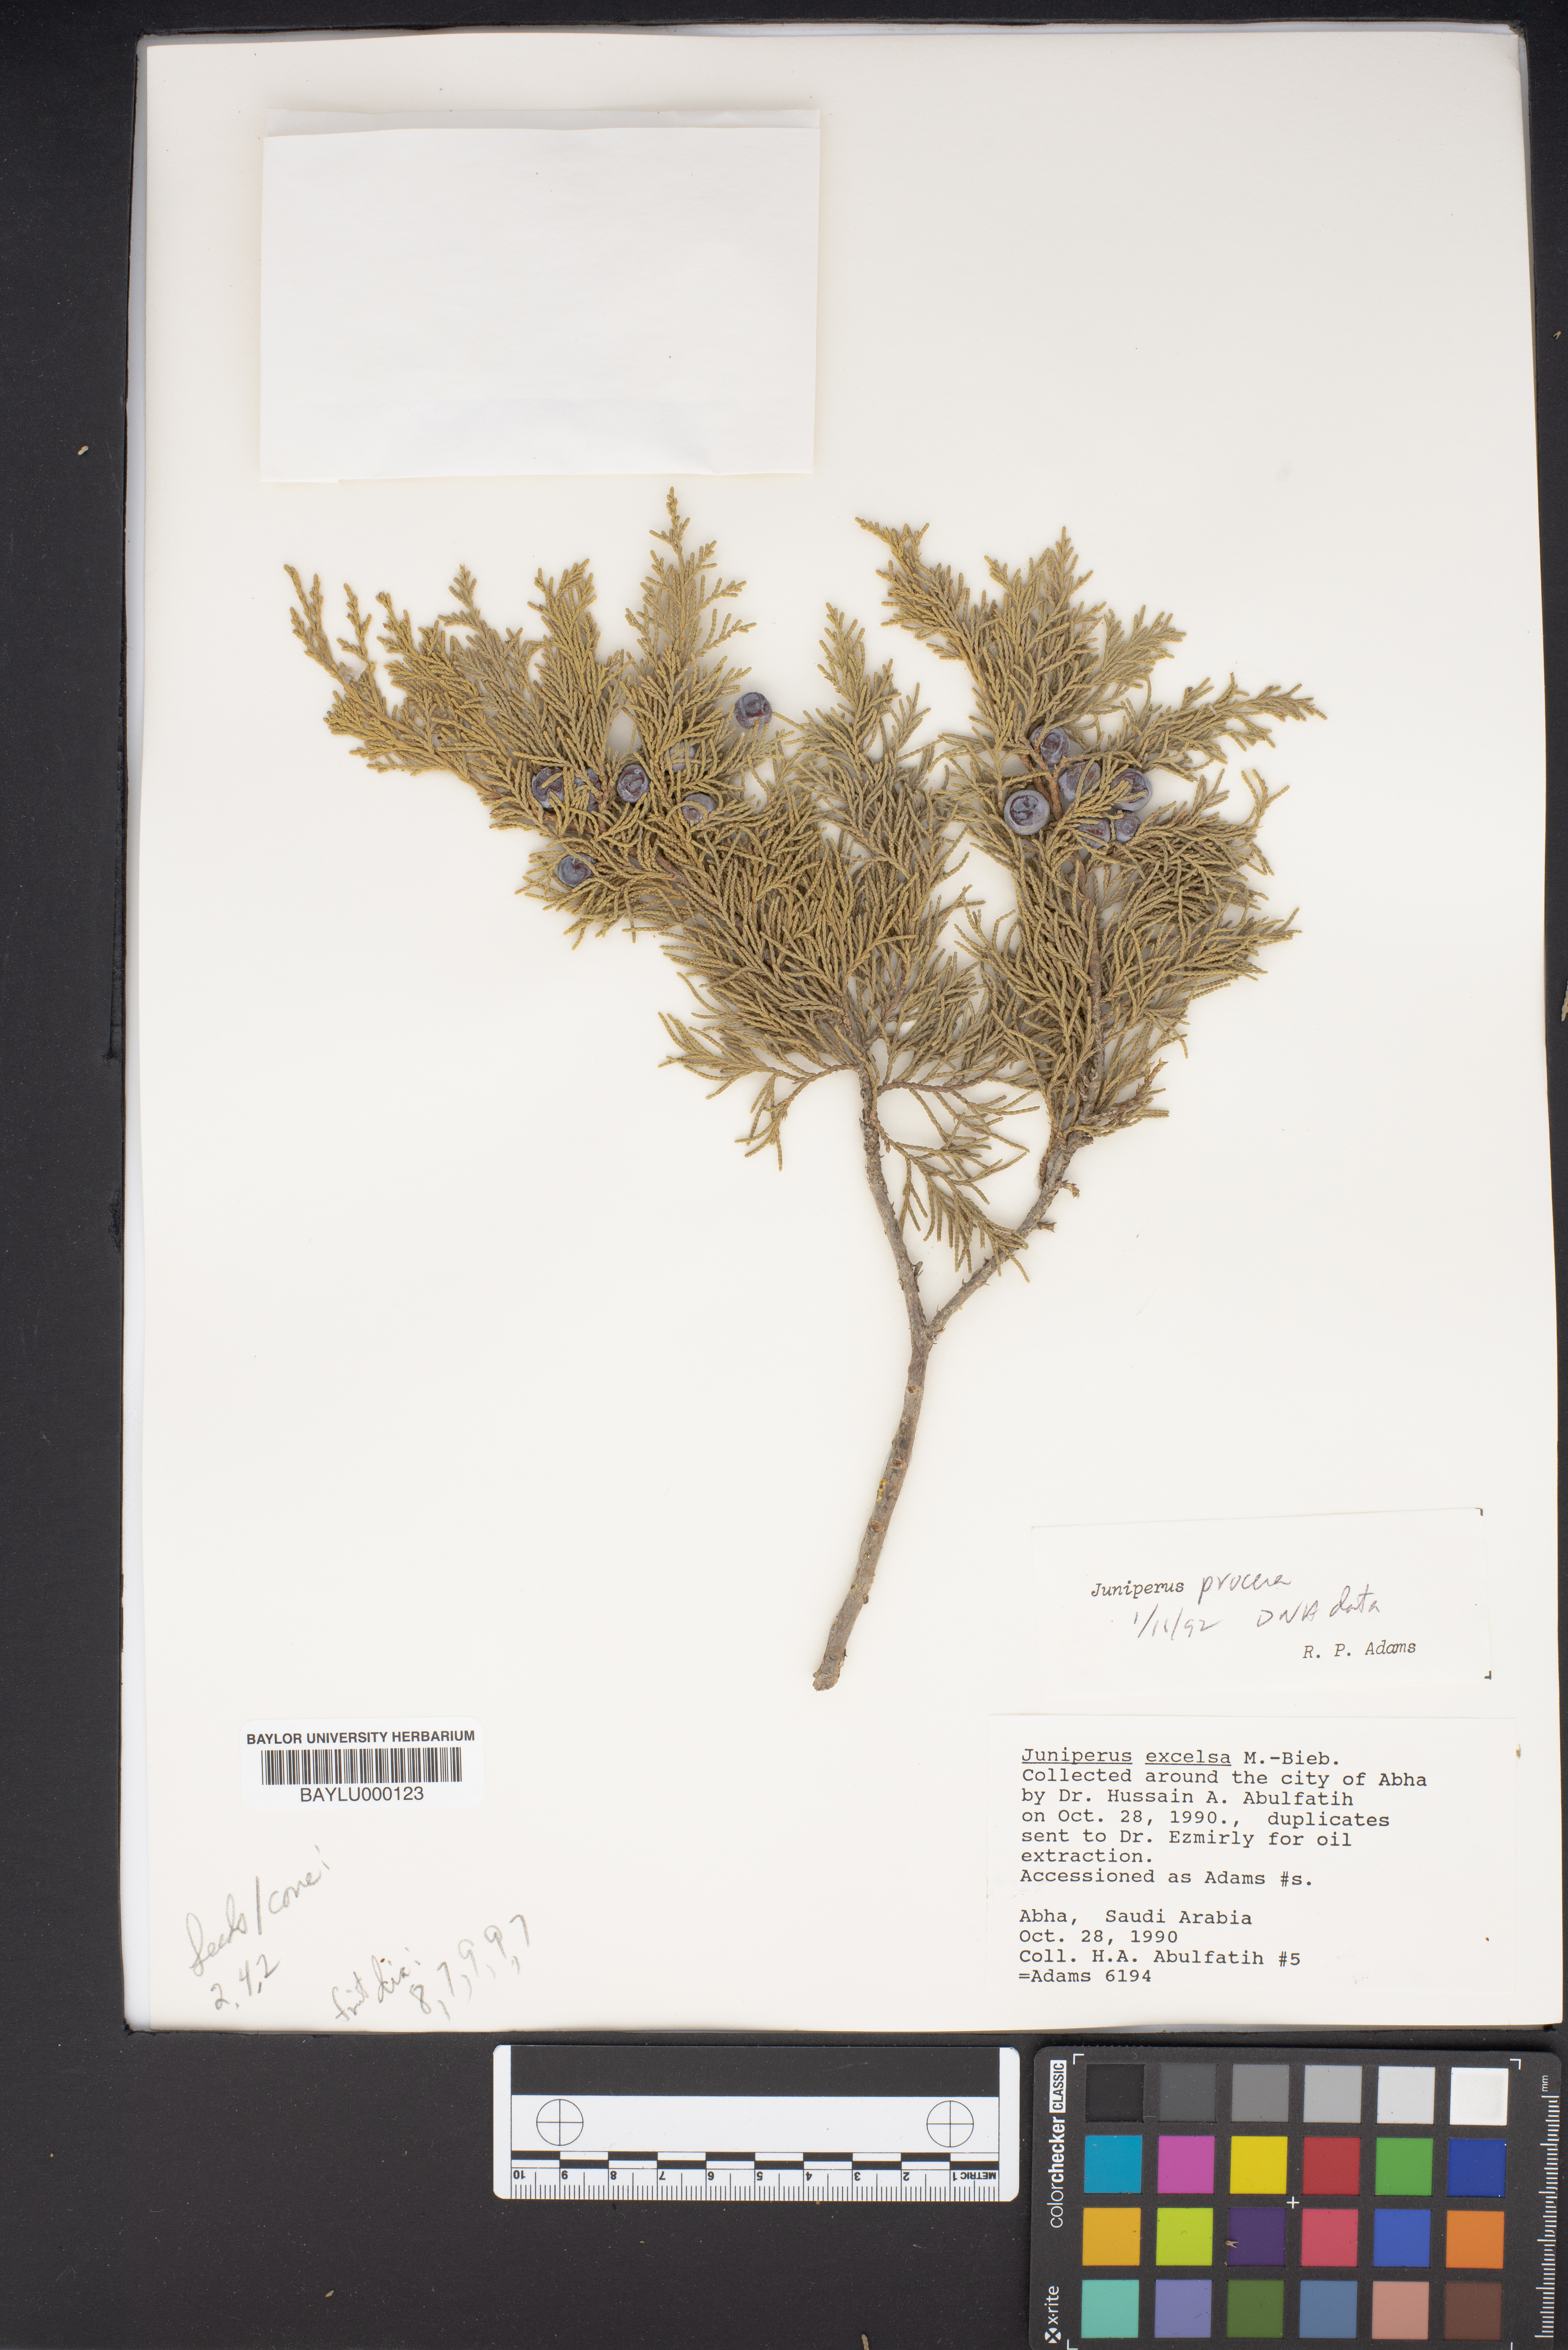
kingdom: Plantae
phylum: Tracheophyta
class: Pinopsida
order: Pinales
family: Cupressaceae
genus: Juniperus
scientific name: Juniperus excelsa
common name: Crimean juniper
